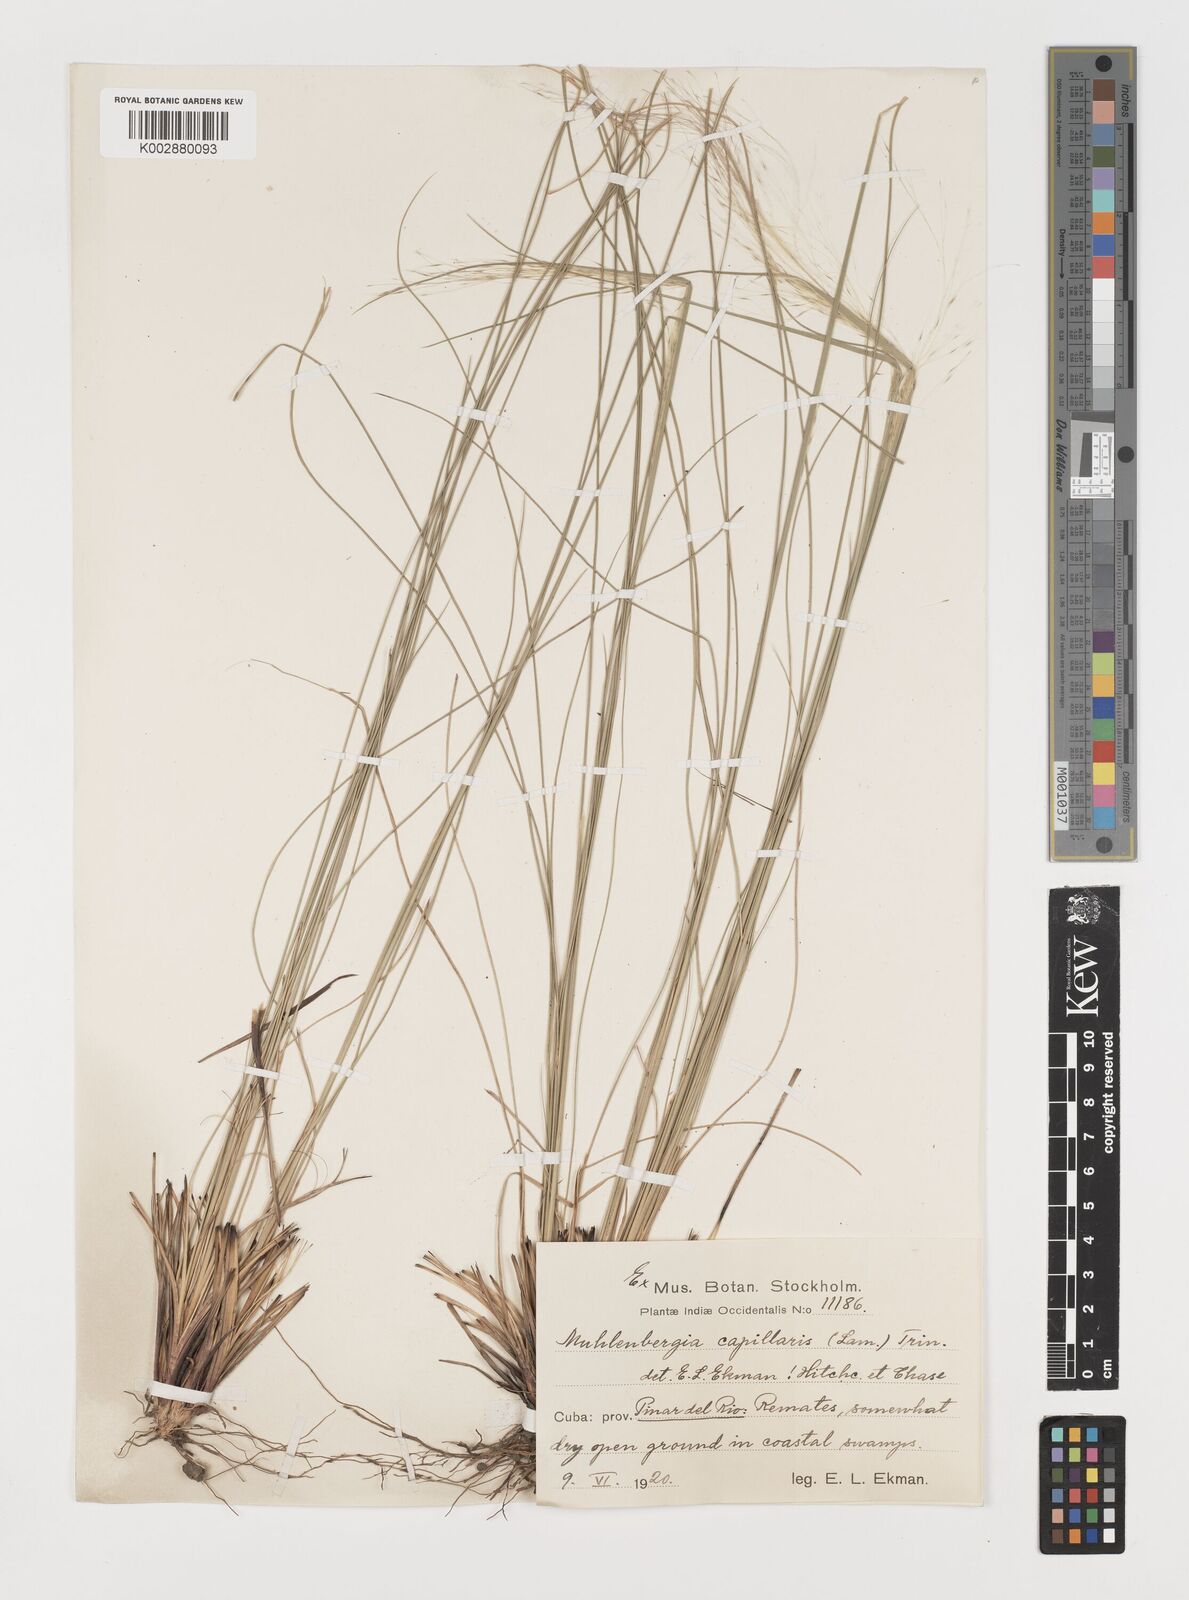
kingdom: Plantae
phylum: Tracheophyta
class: Liliopsida
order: Poales
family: Poaceae
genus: Muhlenbergia
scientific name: Muhlenbergia capillaris
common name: Purple grass
